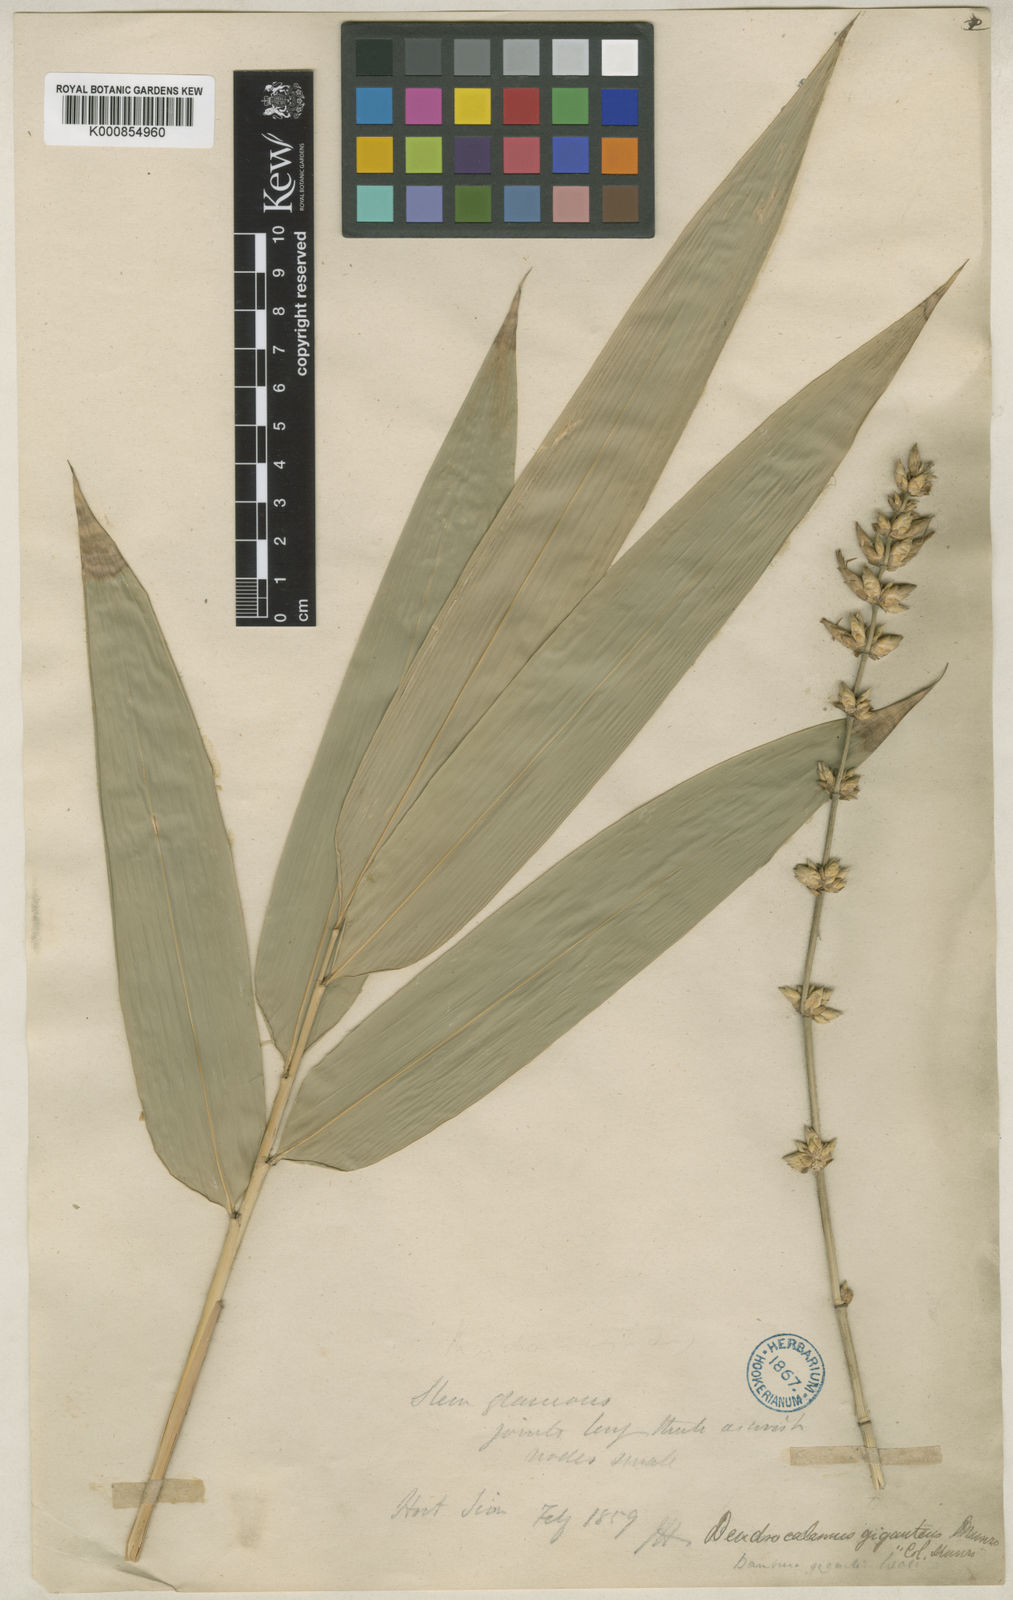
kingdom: Plantae
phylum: Tracheophyta
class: Liliopsida
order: Poales
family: Poaceae
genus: Dendrocalamus
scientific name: Dendrocalamus giganteus
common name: Giant bamboo
